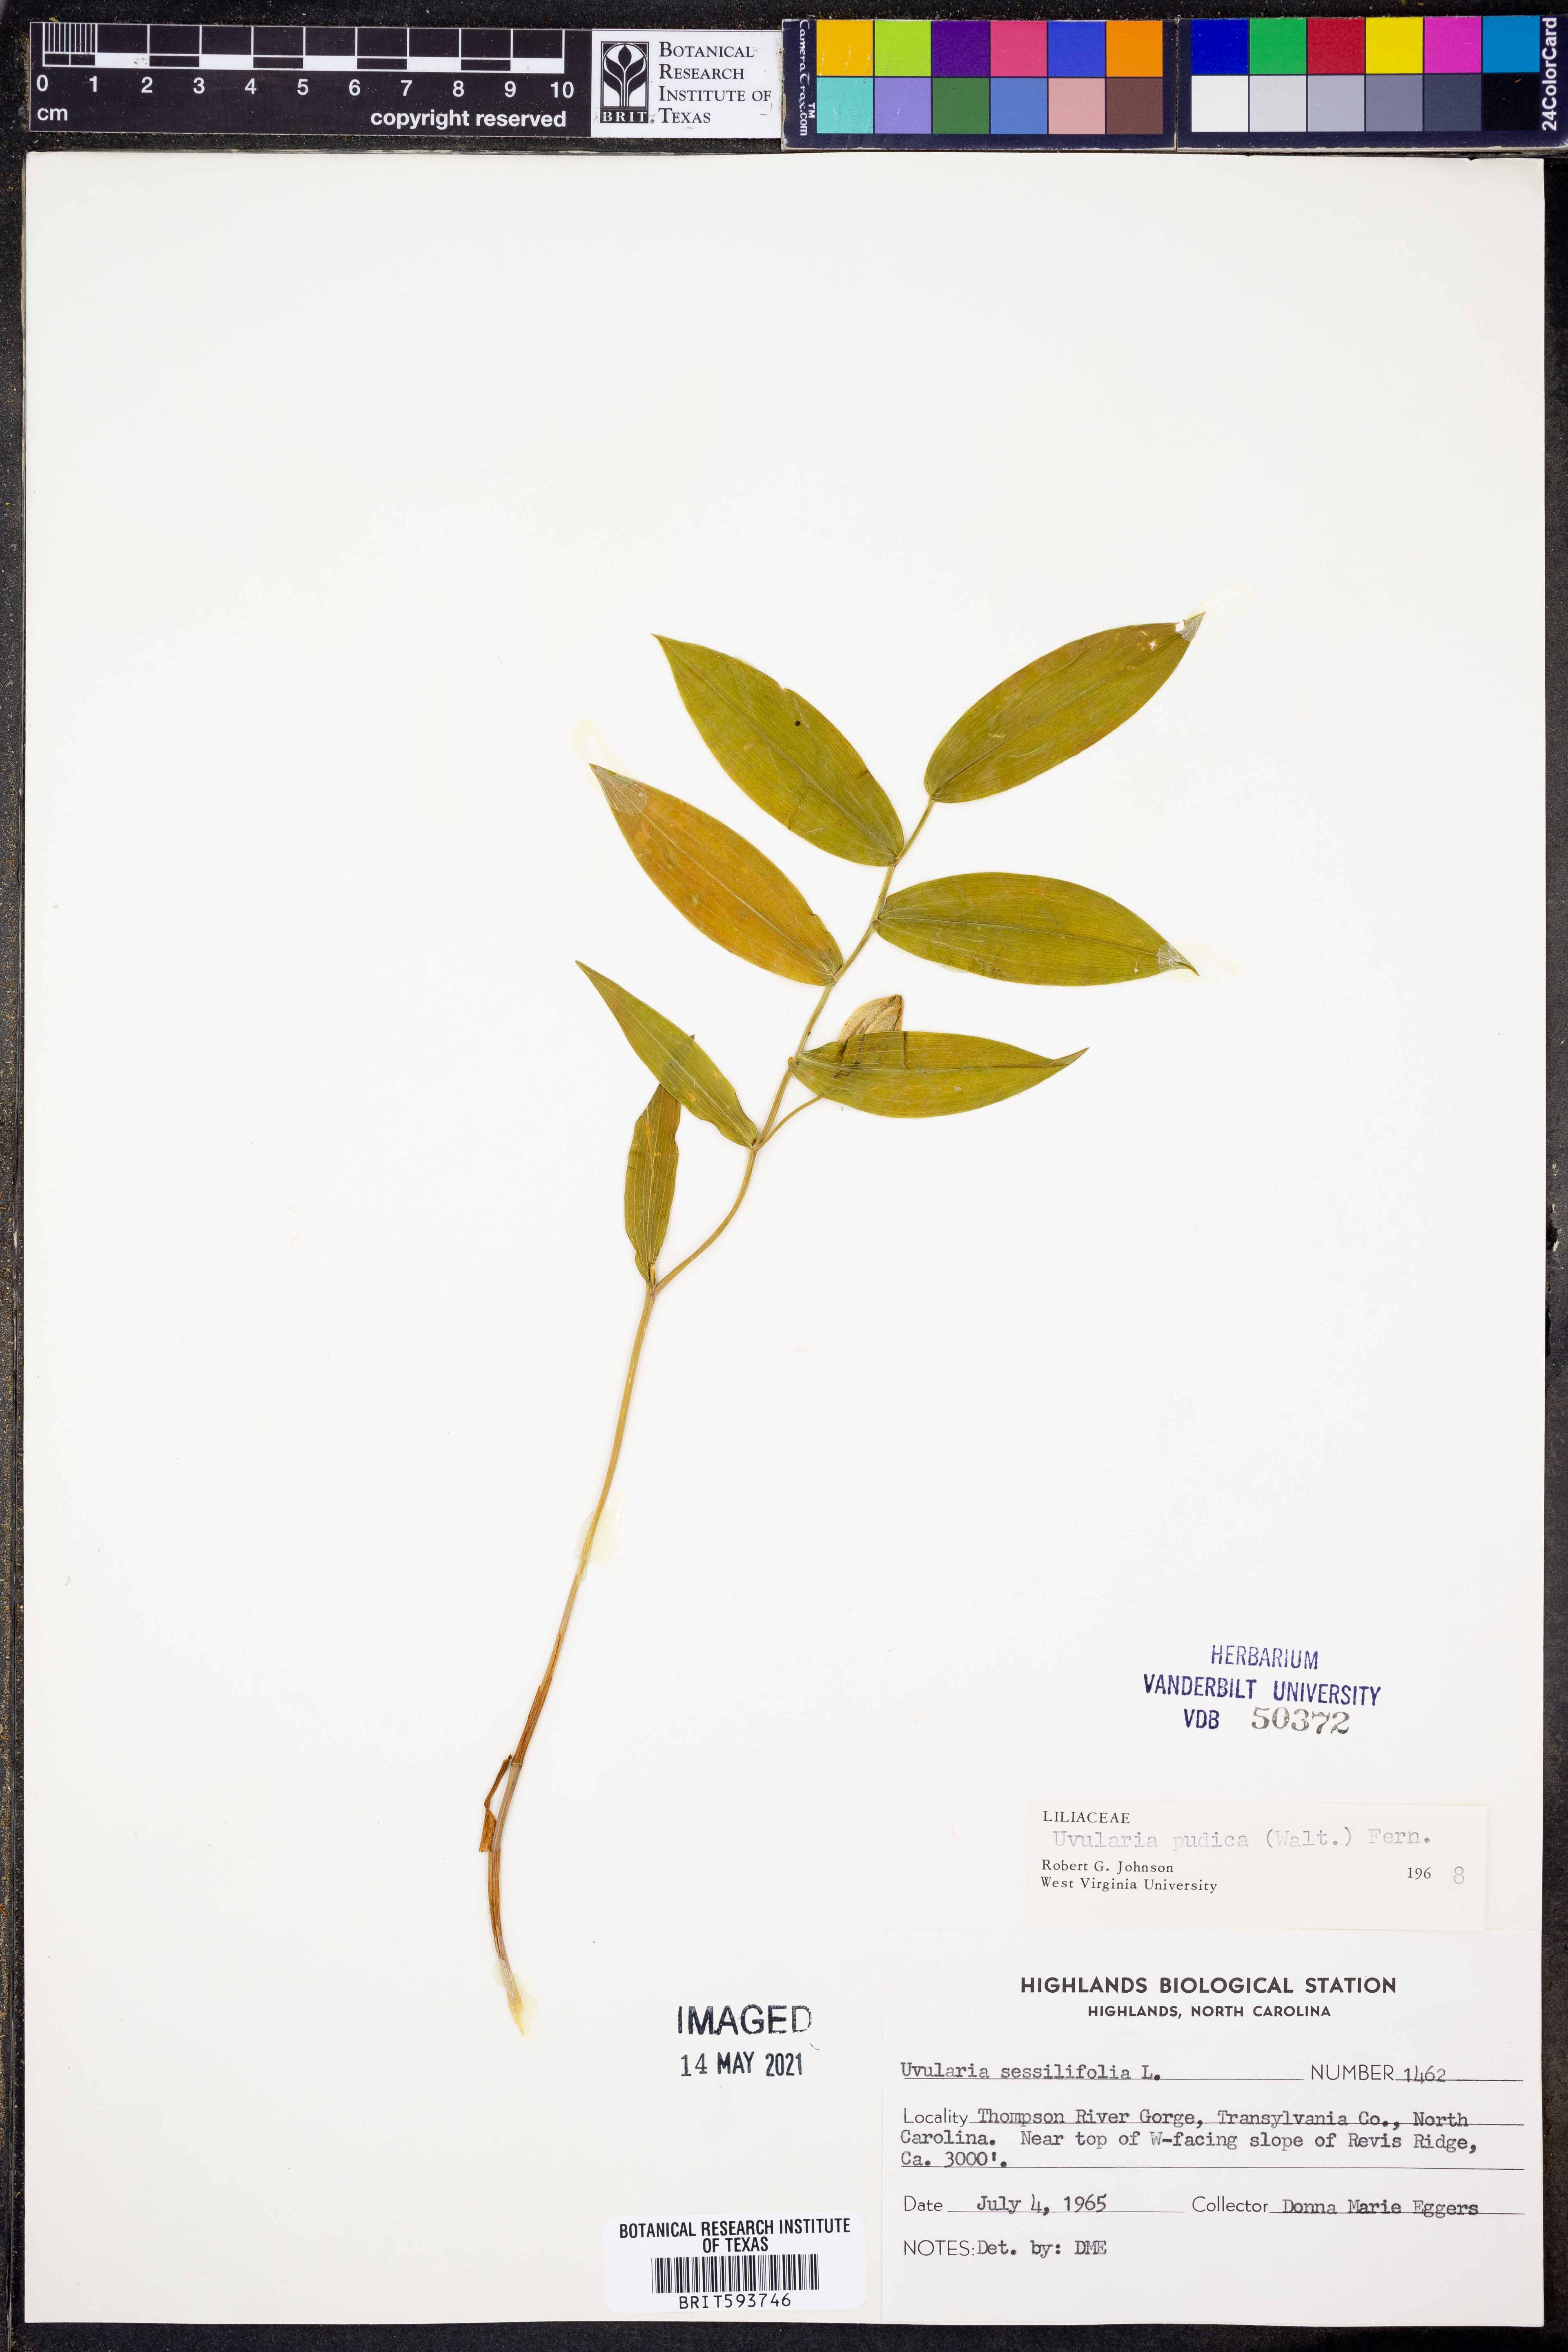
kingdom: Plantae
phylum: Tracheophyta
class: Liliopsida
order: Liliales
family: Colchicaceae
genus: Uvularia
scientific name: Uvularia perfoliata
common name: Perfoliate bellwort
